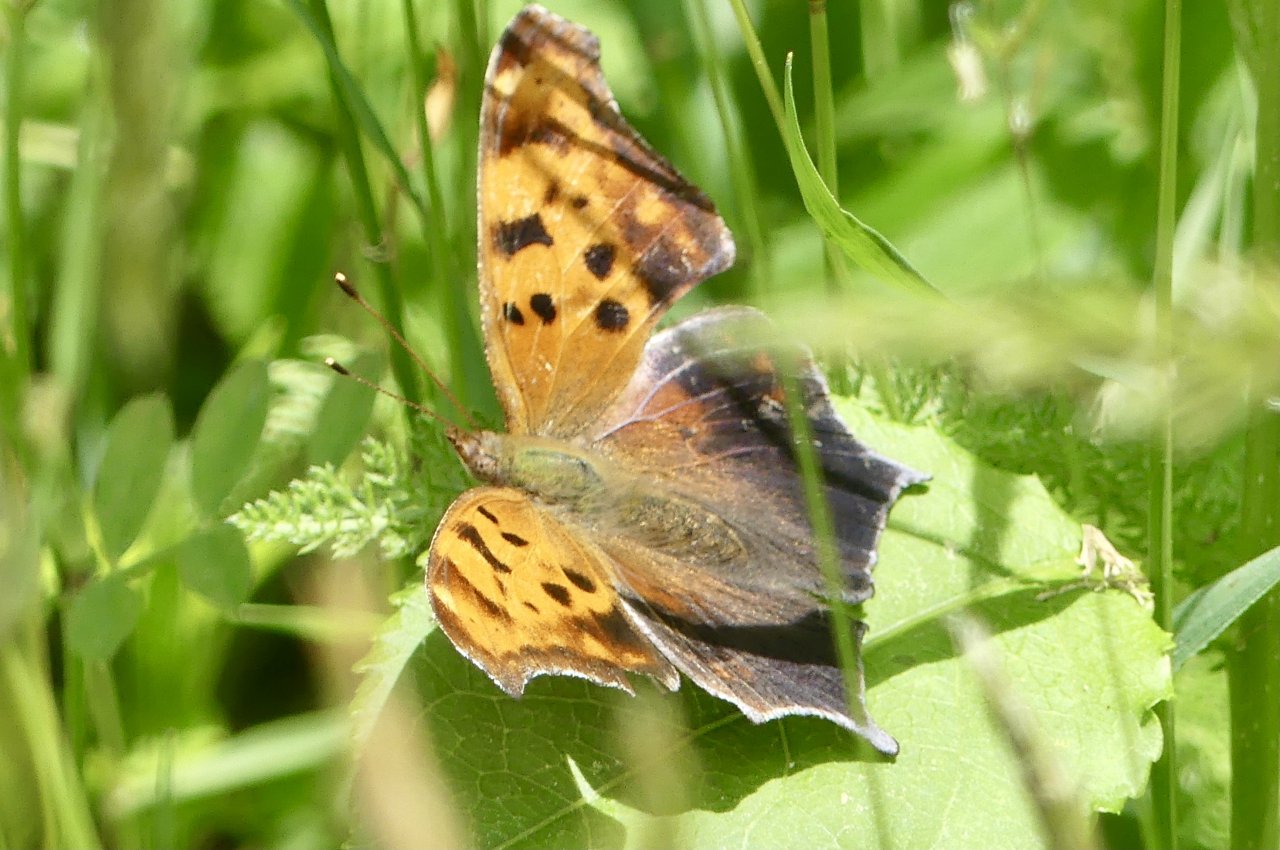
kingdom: Animalia
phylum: Arthropoda
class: Insecta
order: Lepidoptera
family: Nymphalidae
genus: Polygonia
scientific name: Polygonia interrogationis
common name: Question Mark
